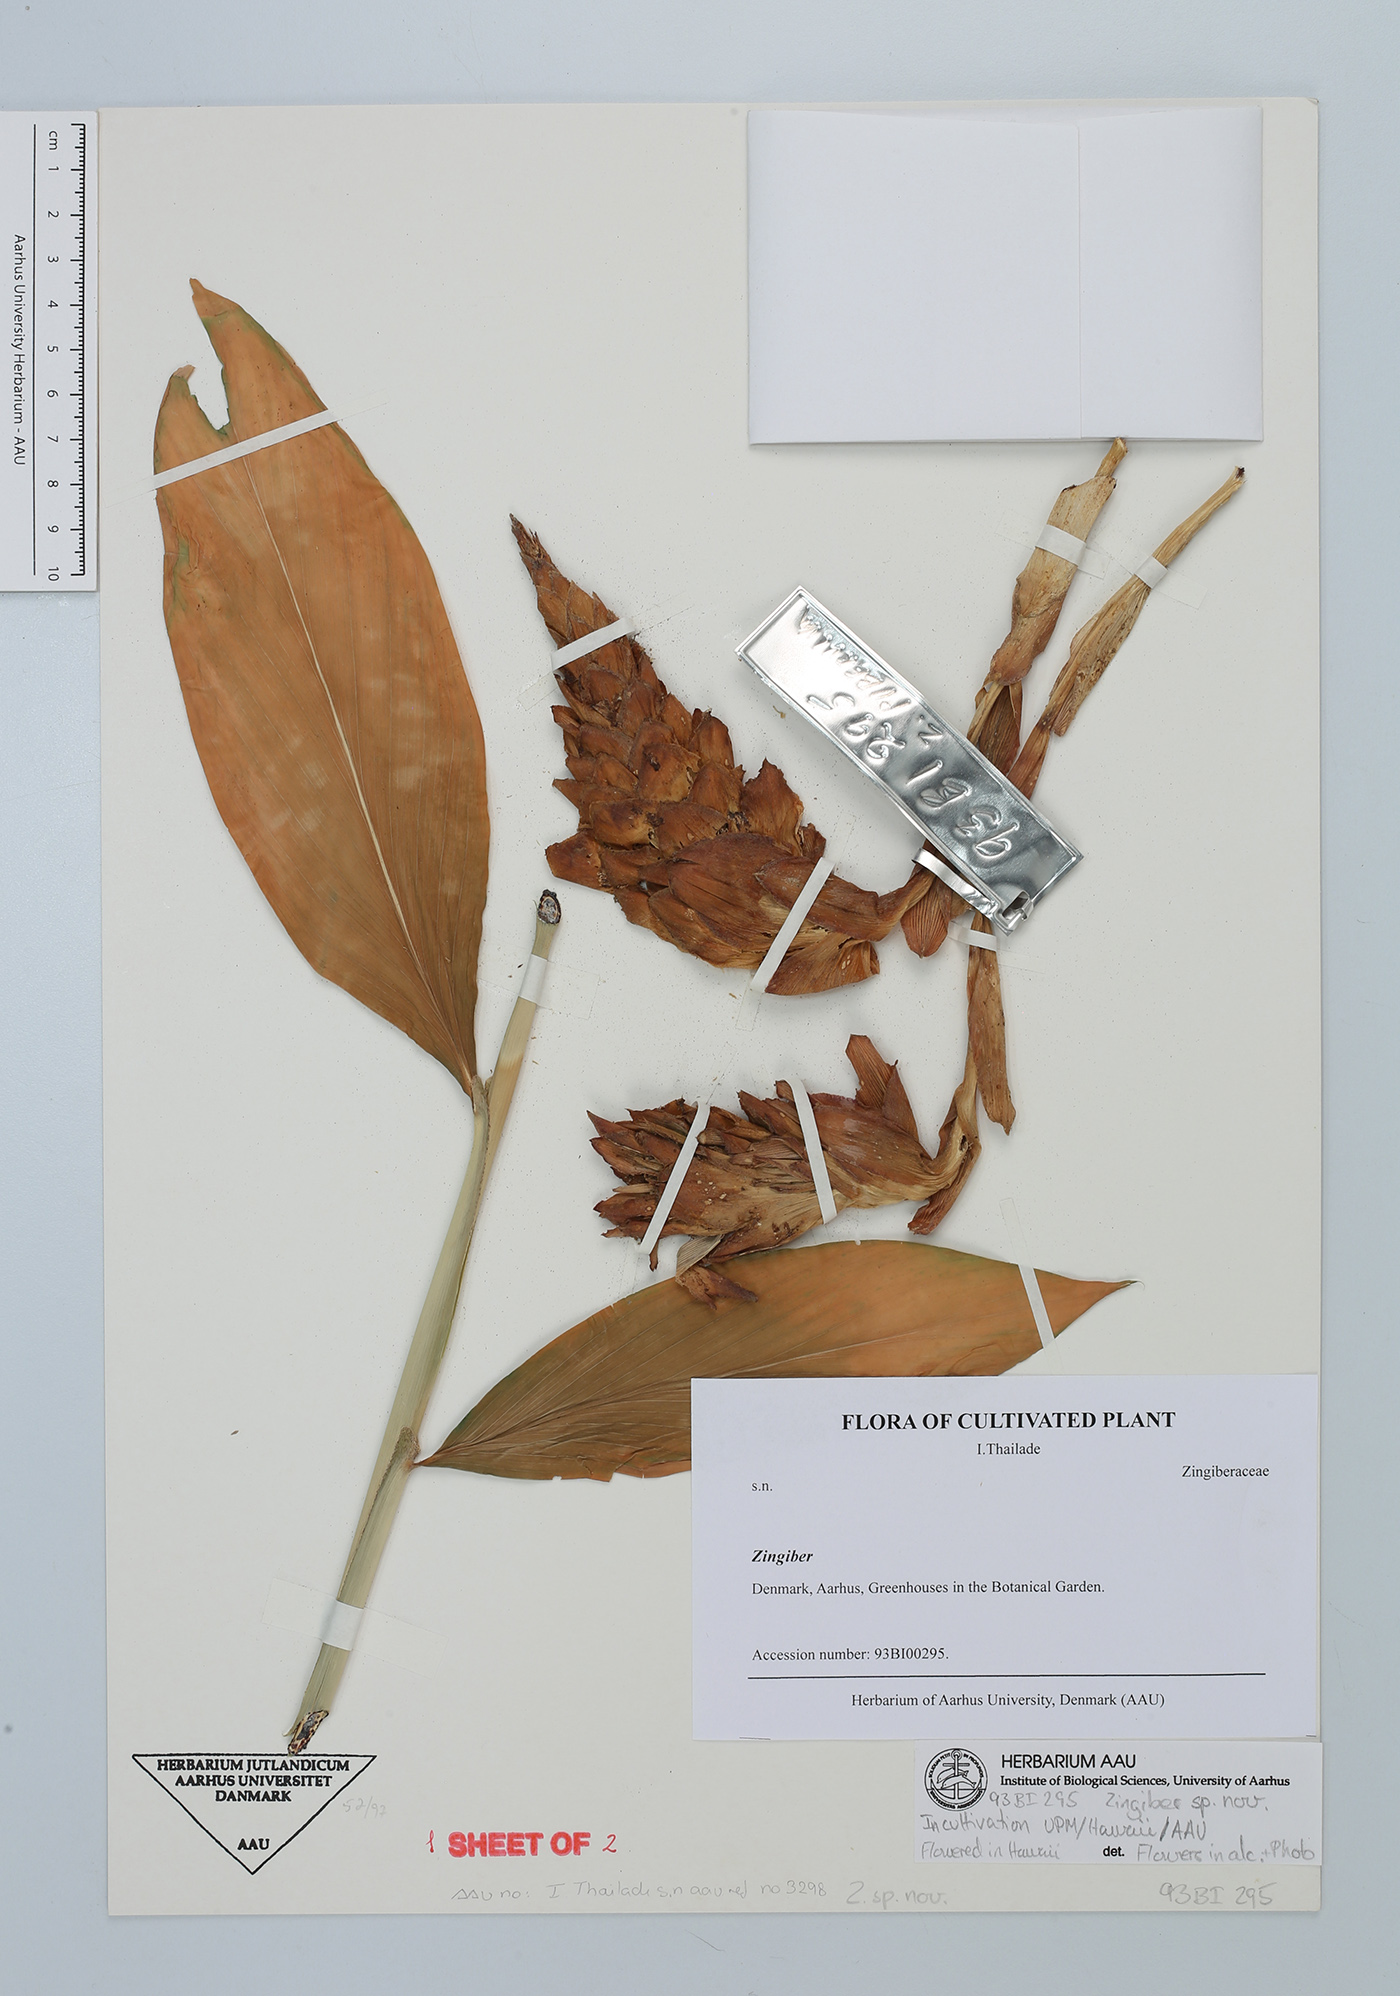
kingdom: Plantae
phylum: Tracheophyta
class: Liliopsida
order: Zingiberales
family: Zingiberaceae
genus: Zingiber
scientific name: Zingiber
